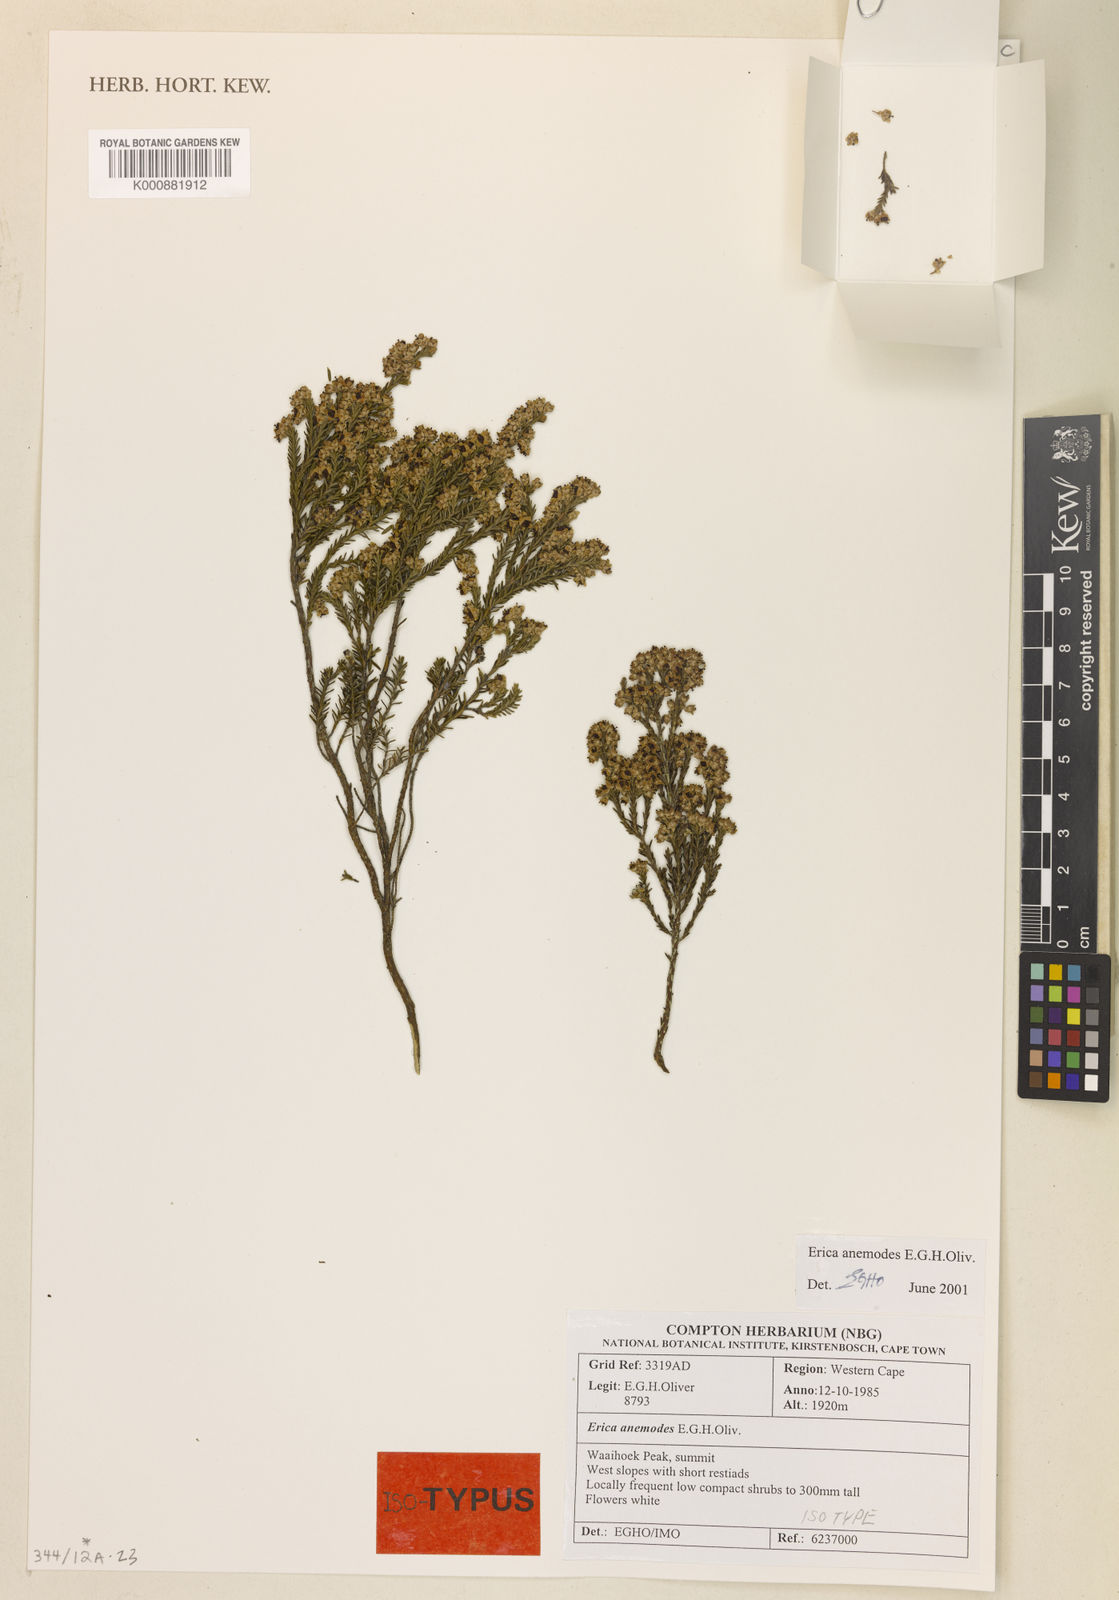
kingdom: Plantae
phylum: Tracheophyta
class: Magnoliopsida
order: Ericales
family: Ericaceae
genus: Erica
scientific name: Erica anemodes
